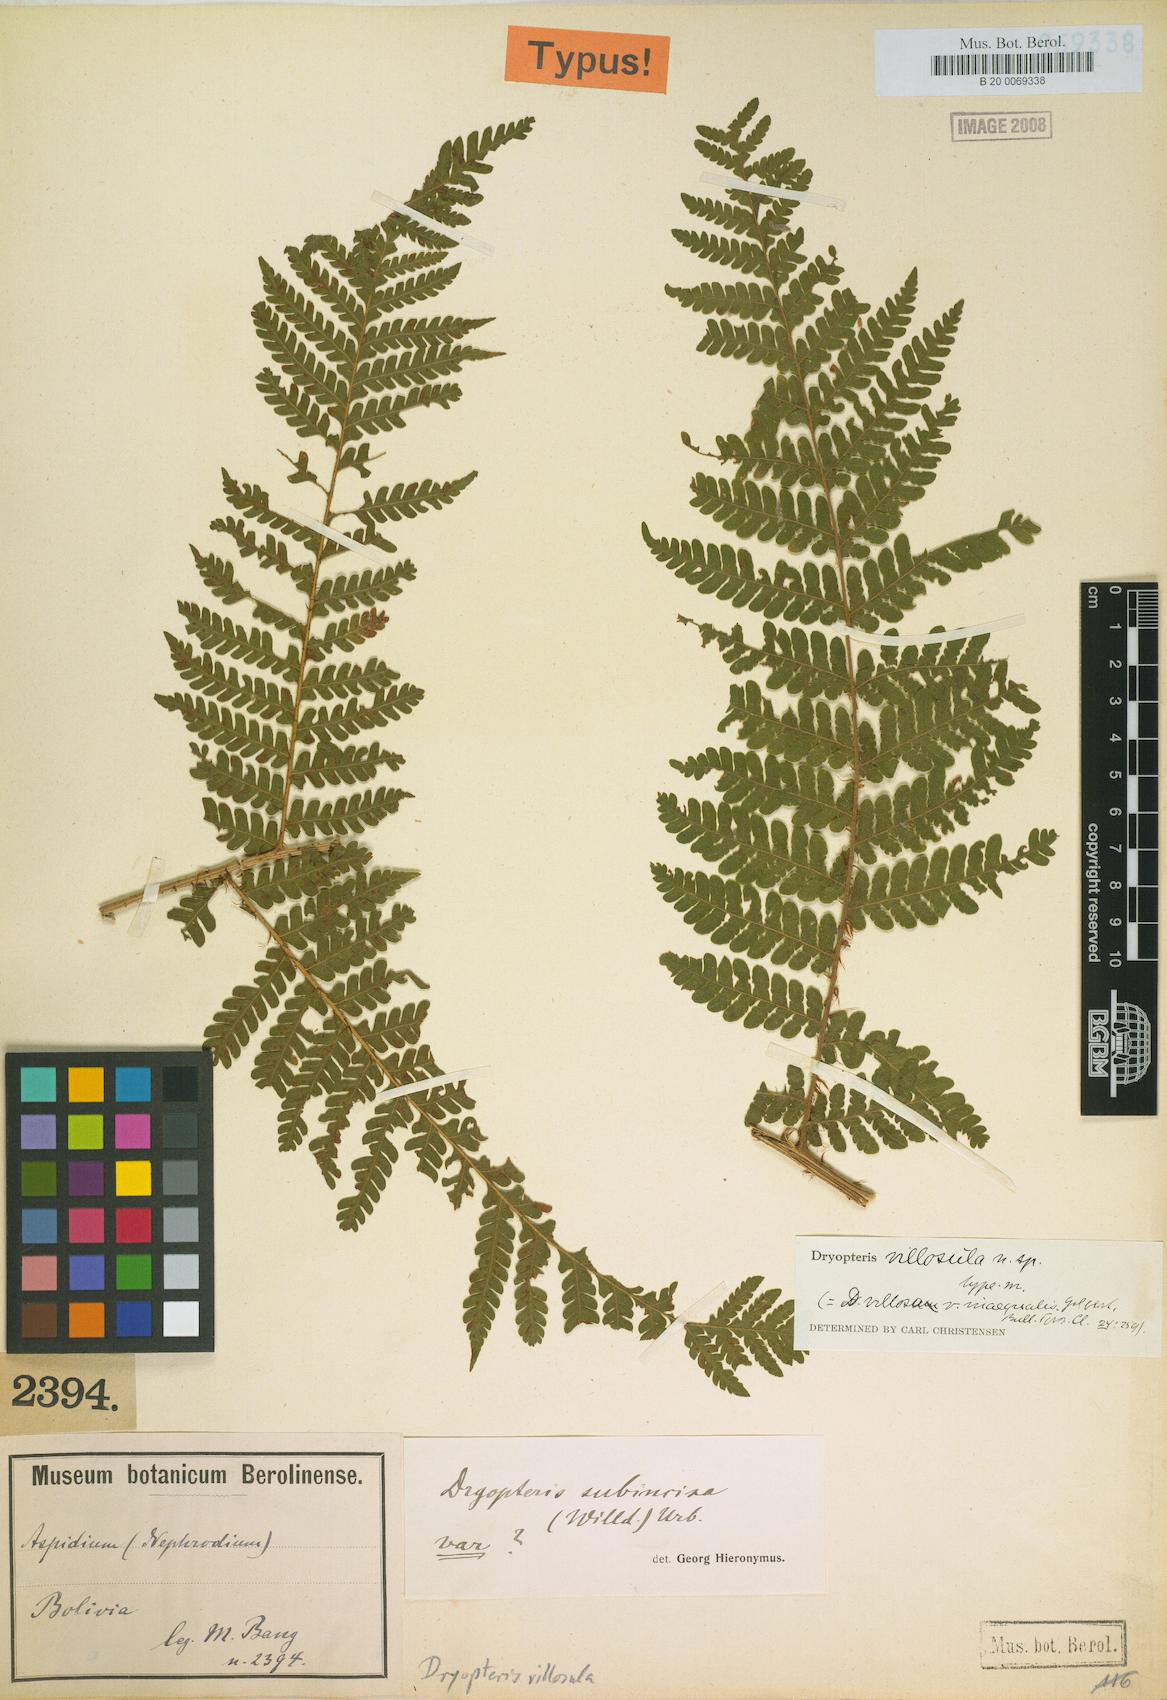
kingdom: Plantae
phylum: Tracheophyta
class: Polypodiopsida
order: Polypodiales
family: Dryopteridaceae
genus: Megalastrum
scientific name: Megalastrum andicola
